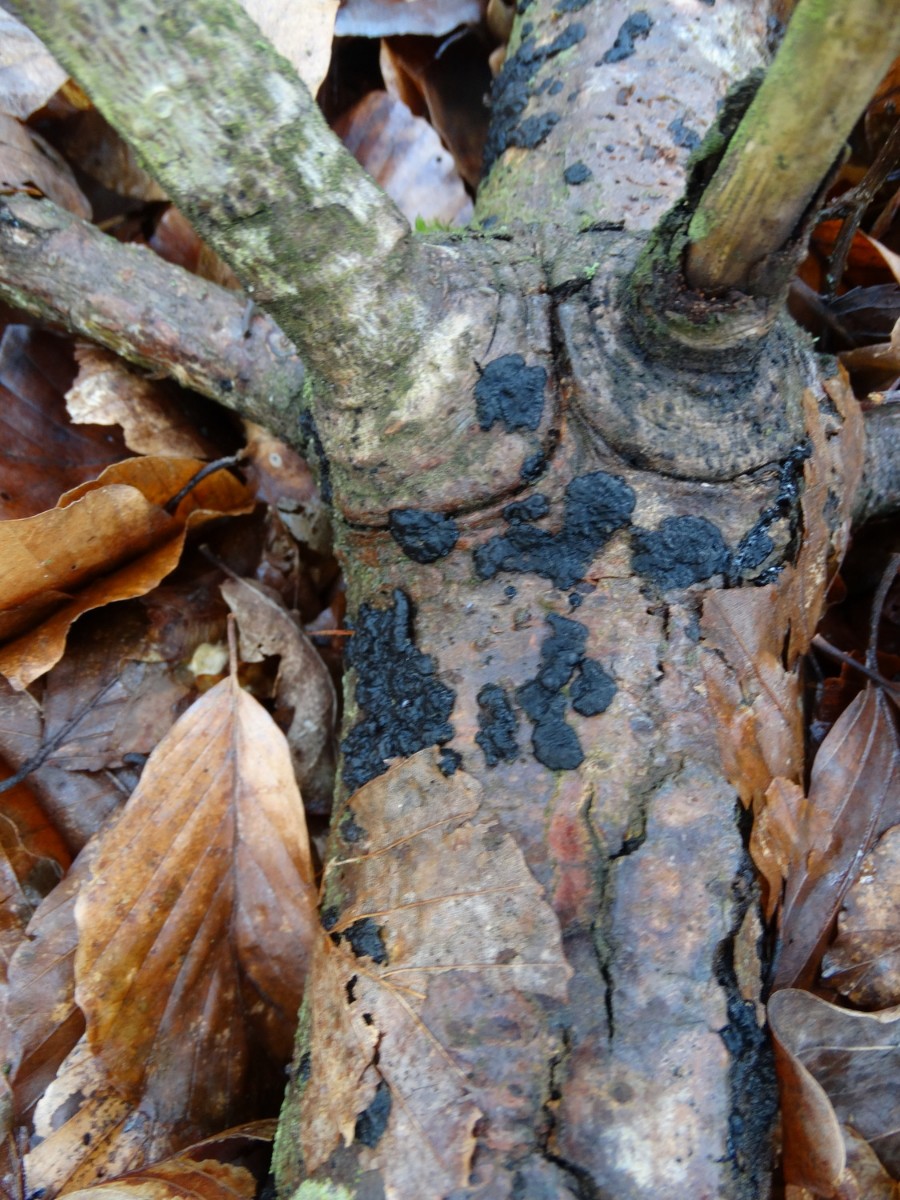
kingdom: Fungi
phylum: Basidiomycota
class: Agaricomycetes
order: Auriculariales
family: Auriculariaceae
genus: Exidia
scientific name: Exidia pithya
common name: gran-bævretop
